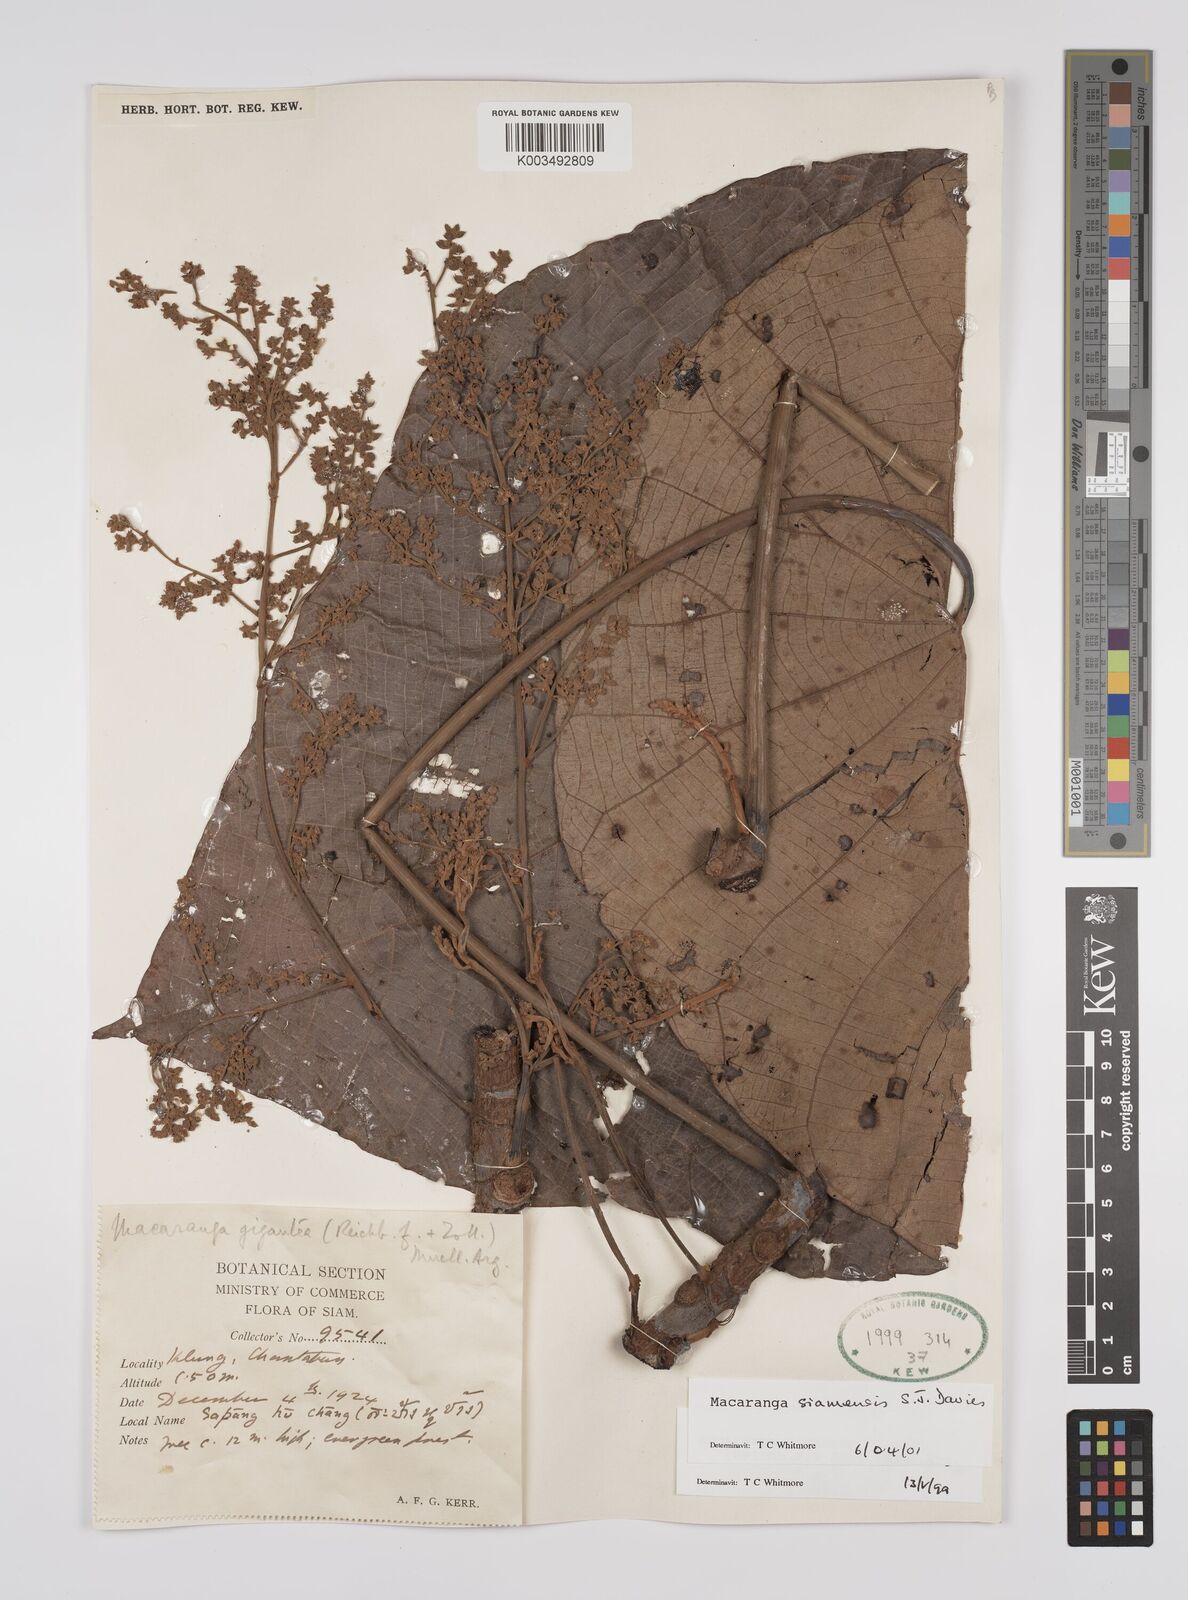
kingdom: Plantae
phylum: Tracheophyta
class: Magnoliopsida
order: Malpighiales
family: Euphorbiaceae
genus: Macaranga
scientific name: Macaranga siamensis
